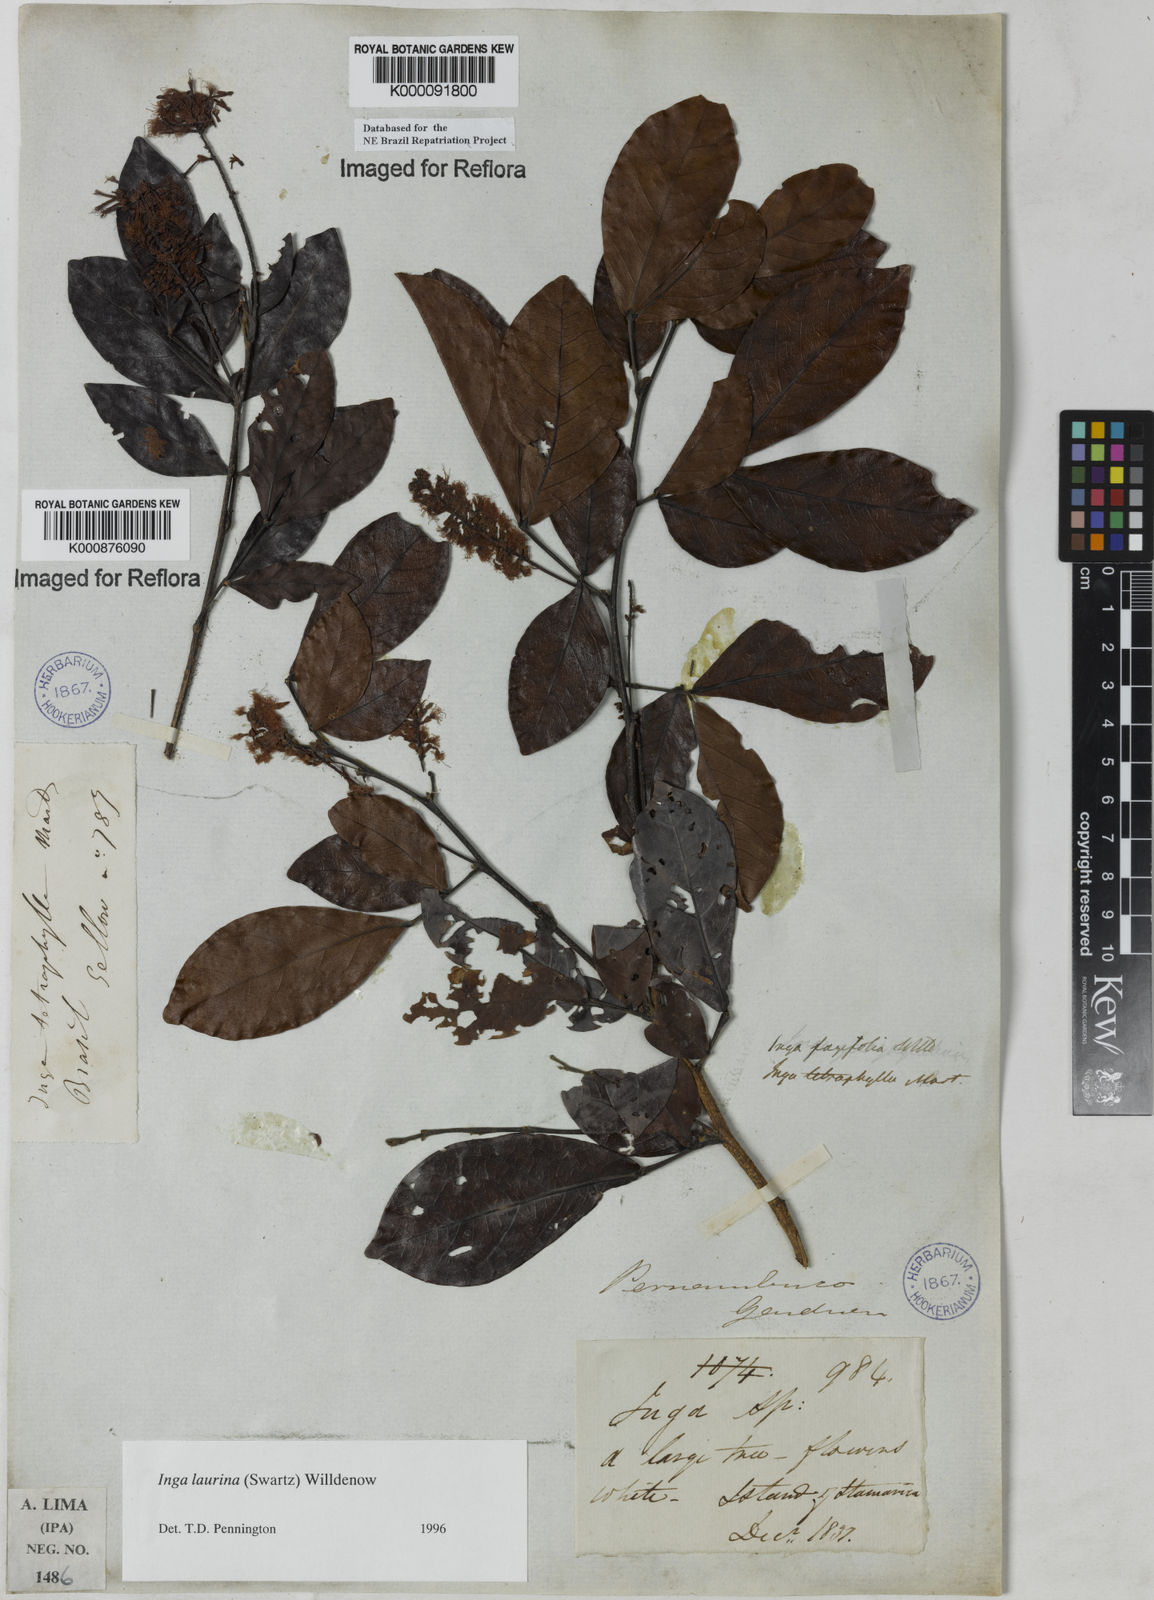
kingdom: Plantae
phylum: Tracheophyta
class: Magnoliopsida
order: Fabales
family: Fabaceae
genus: Inga
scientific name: Inga laurina
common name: Red wood
